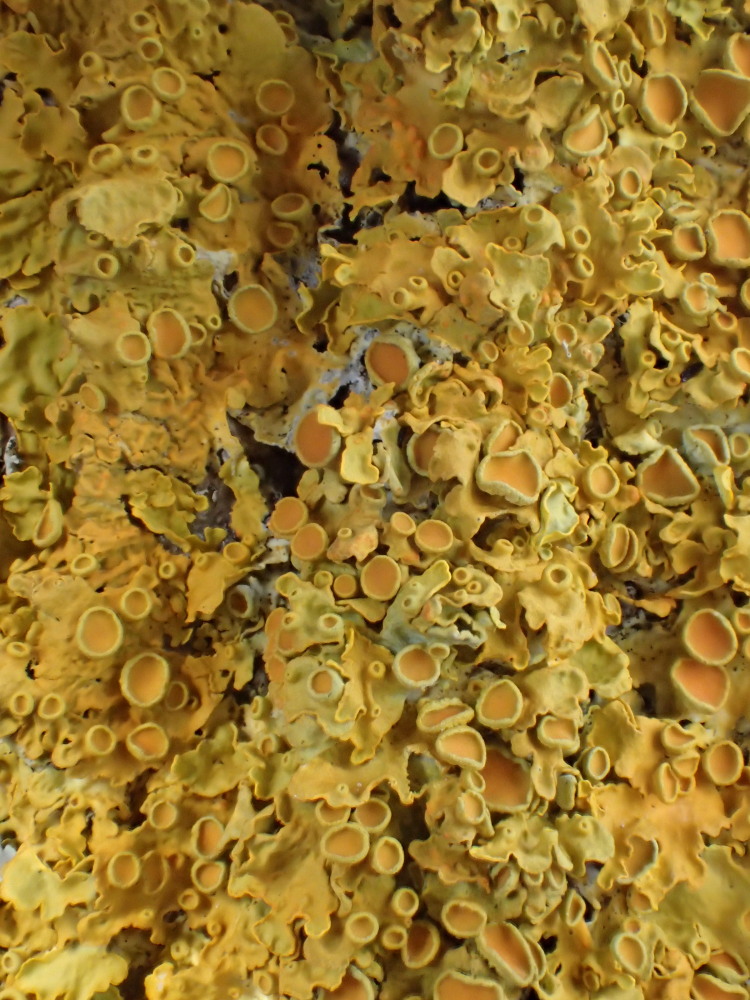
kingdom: Fungi
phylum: Ascomycota
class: Lecanoromycetes
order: Teloschistales
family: Teloschistaceae
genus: Xanthoria
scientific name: Xanthoria parietina
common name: almindelig væggelav
